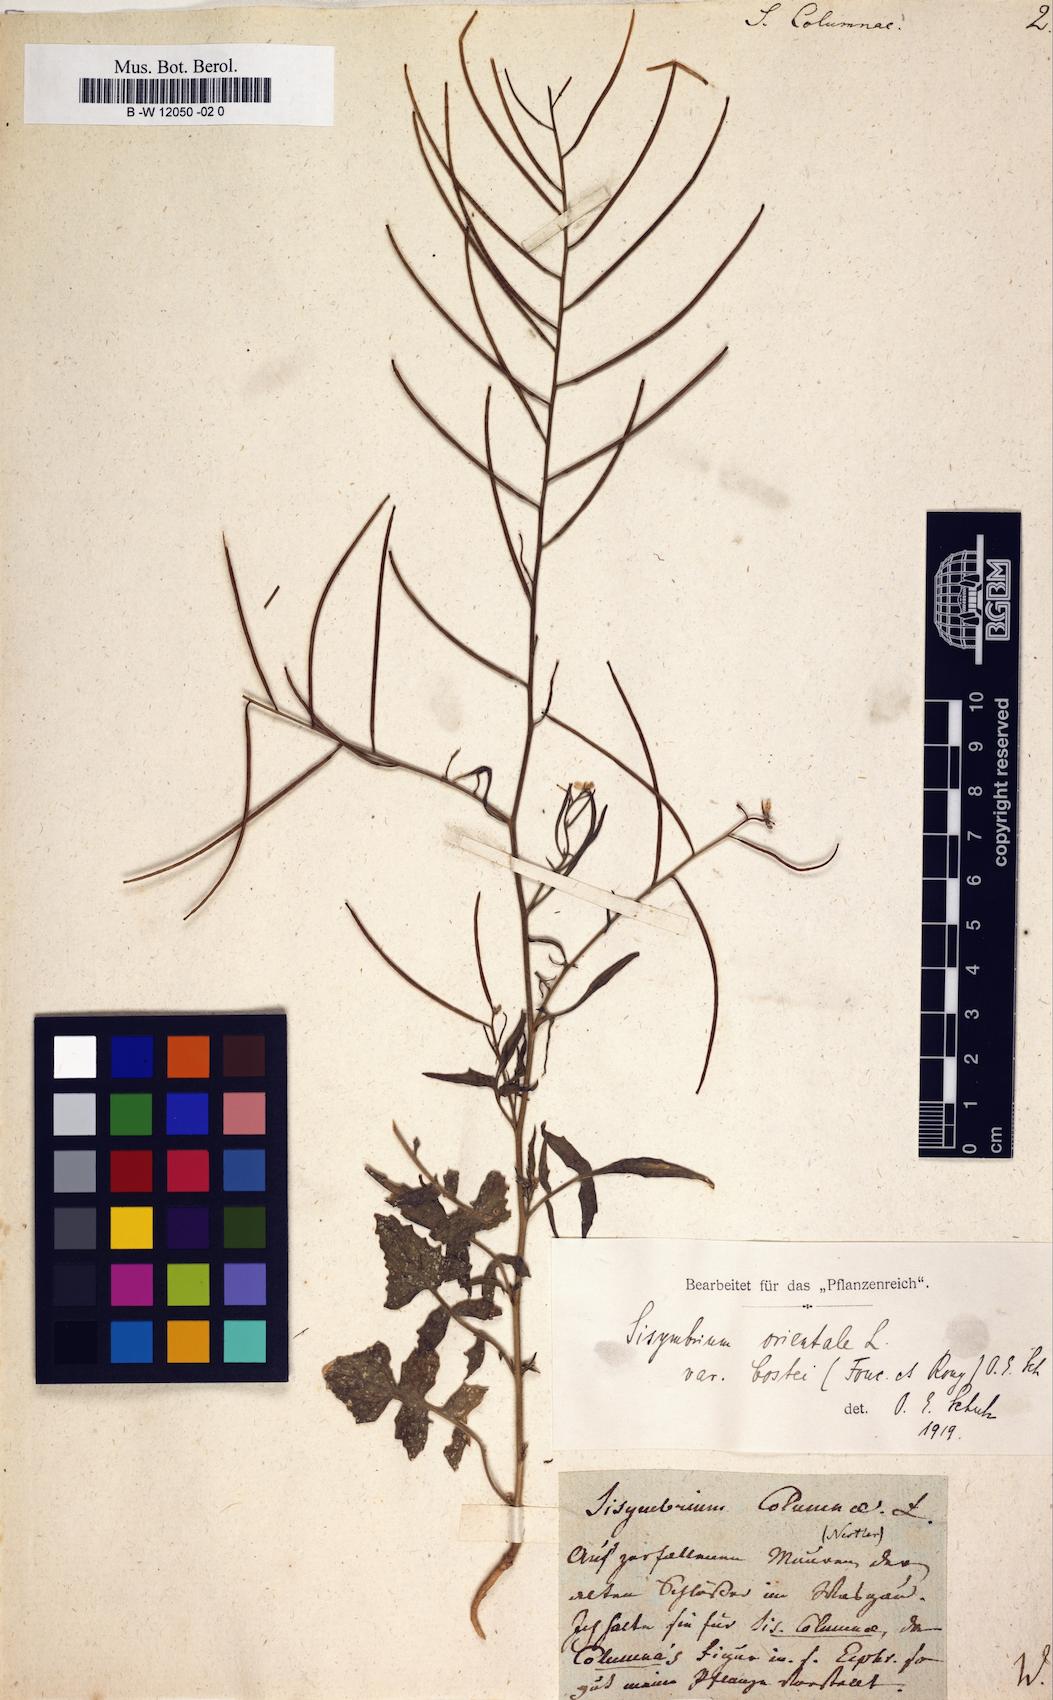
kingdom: Plantae
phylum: Tracheophyta
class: Magnoliopsida
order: Brassicales
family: Brassicaceae
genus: Sisymbrium
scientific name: Sisymbrium orientale
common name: Eastern rocket
